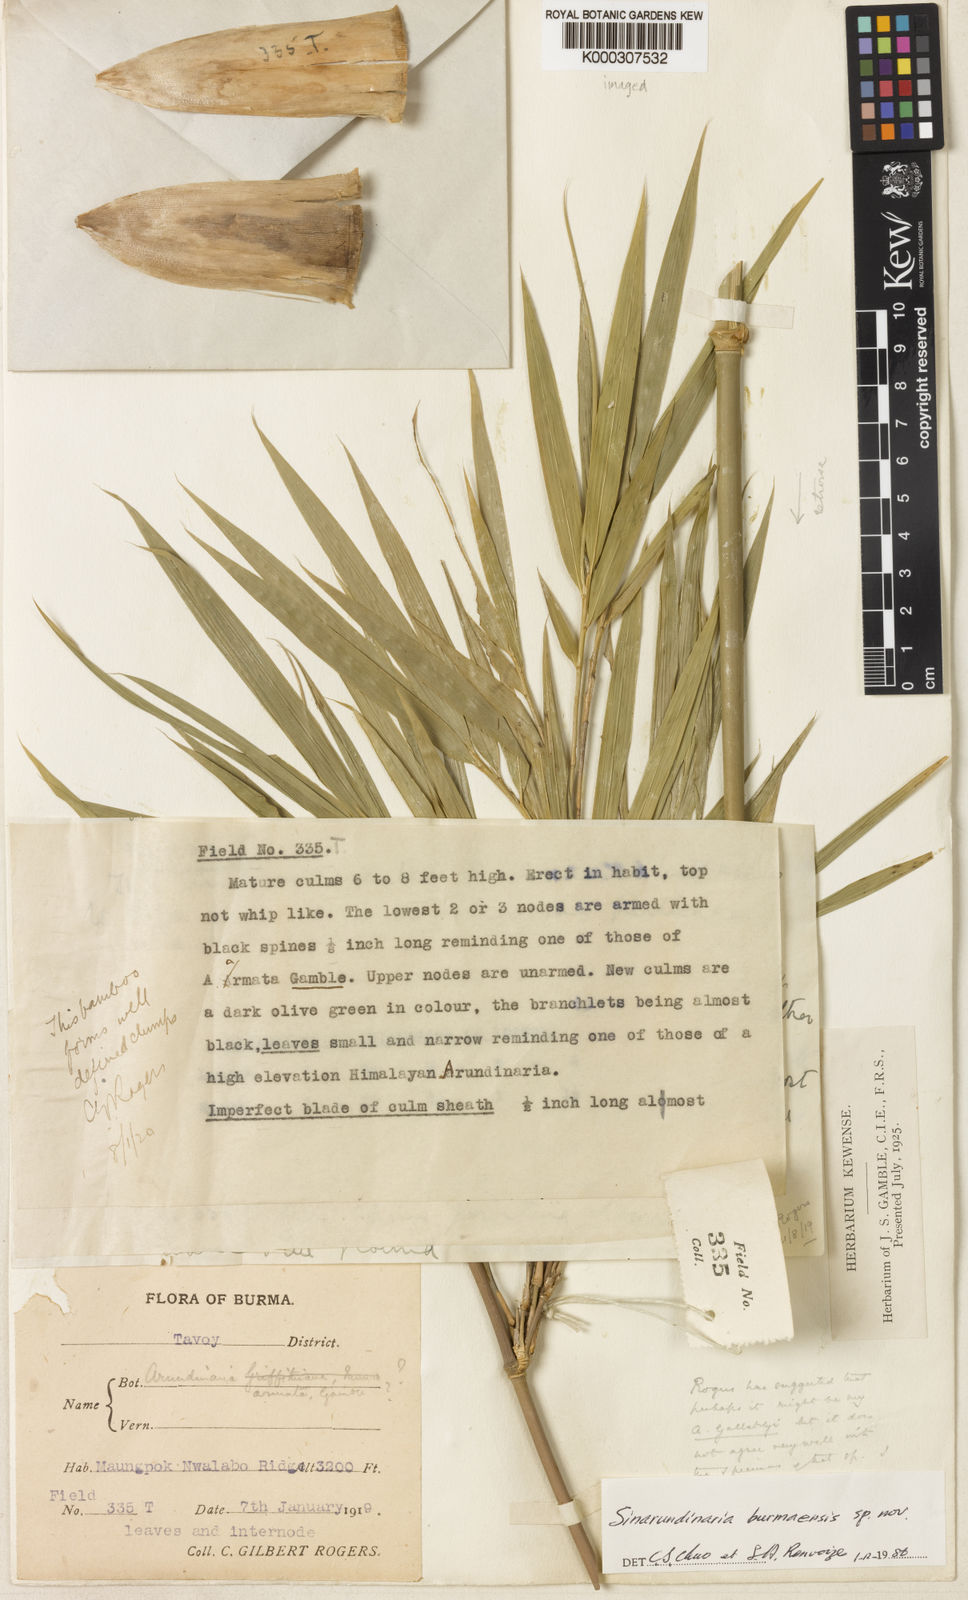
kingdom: Plantae
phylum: Tracheophyta
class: Liliopsida
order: Poales
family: Poaceae
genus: Chimonocalamus
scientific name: Chimonocalamus burmaensis
